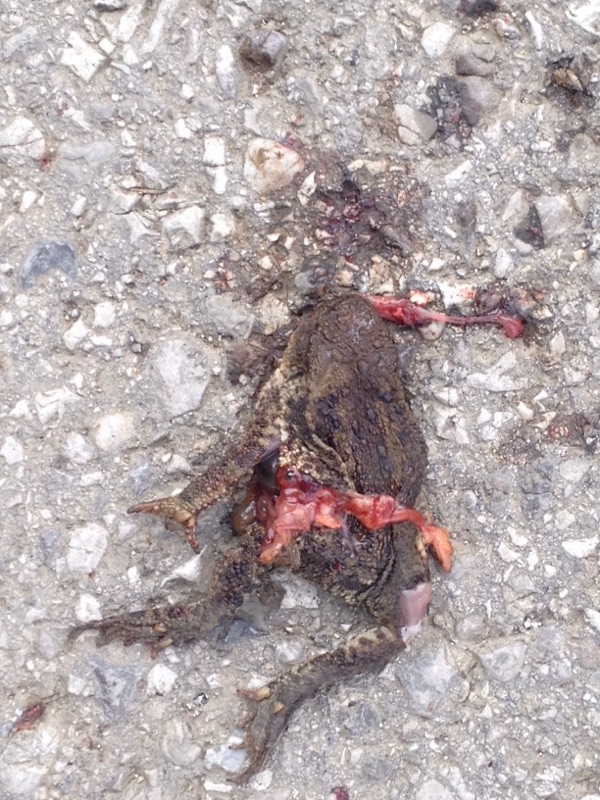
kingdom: Animalia
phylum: Chordata
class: Amphibia
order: Anura
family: Bufonidae
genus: Bufo
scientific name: Bufo bufo
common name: Common toad
